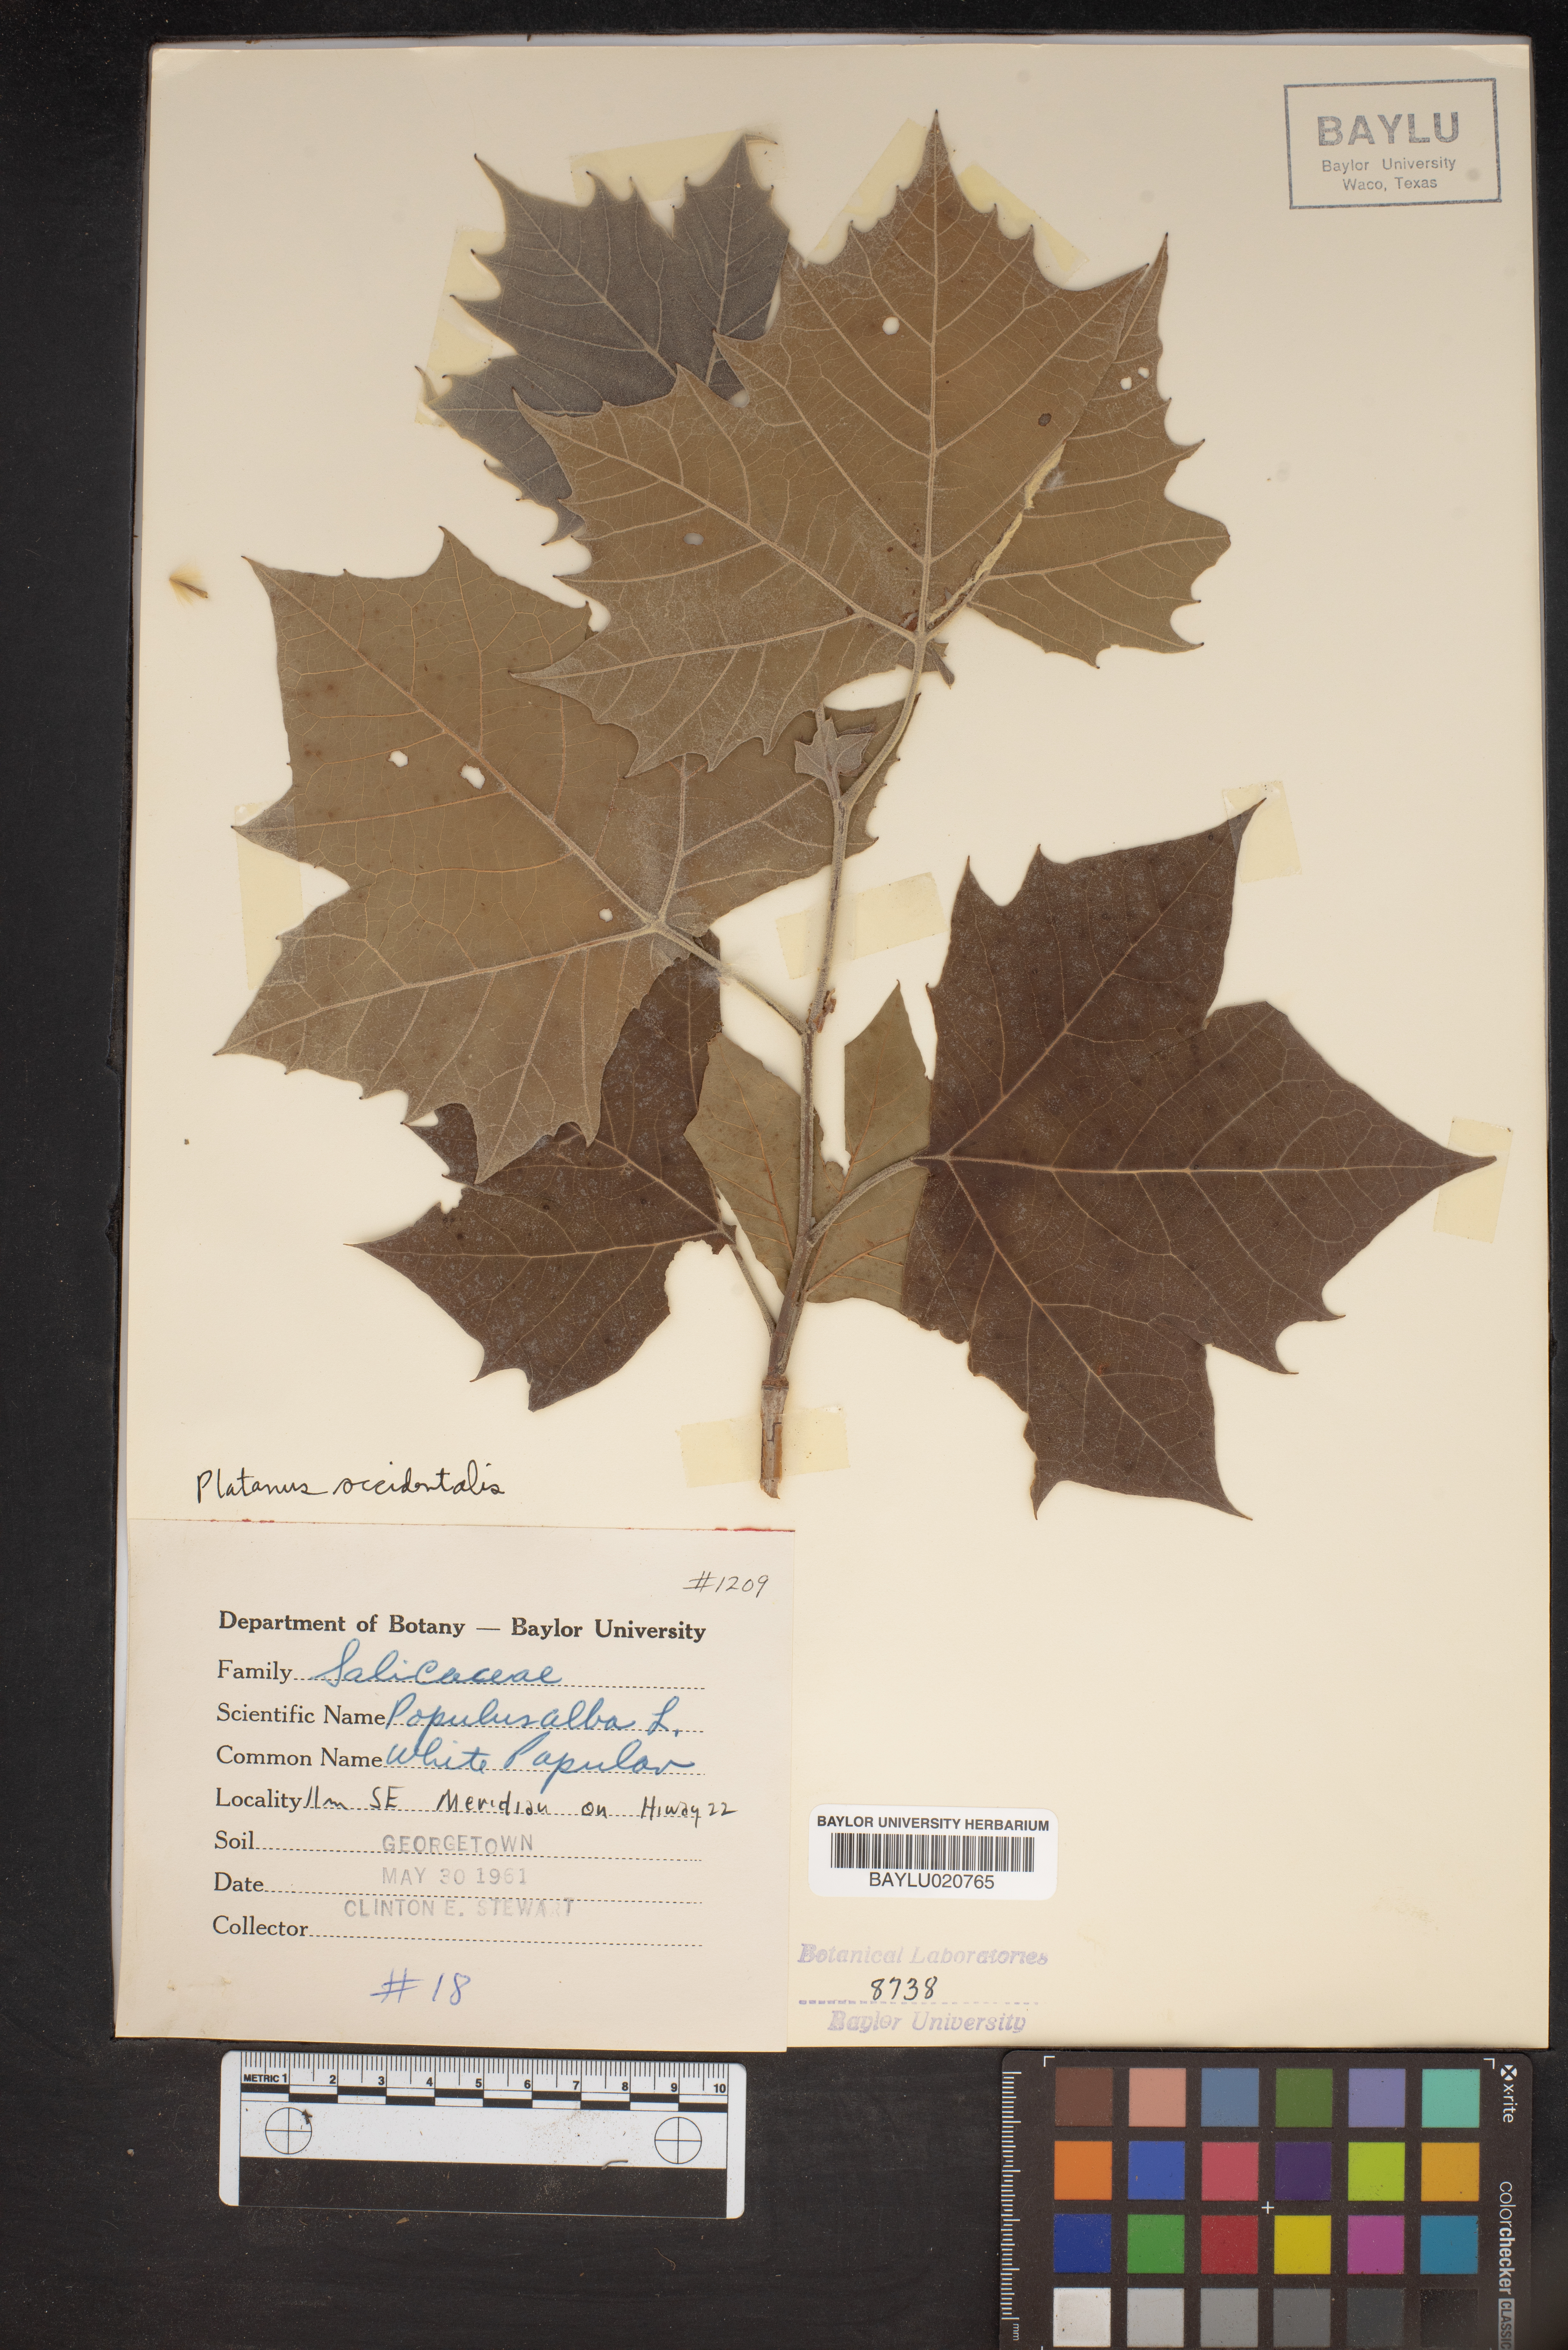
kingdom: Plantae
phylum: Tracheophyta
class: Magnoliopsida
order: Malpighiales
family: Salicaceae
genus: Populus
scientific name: Populus alba
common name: White poplar
